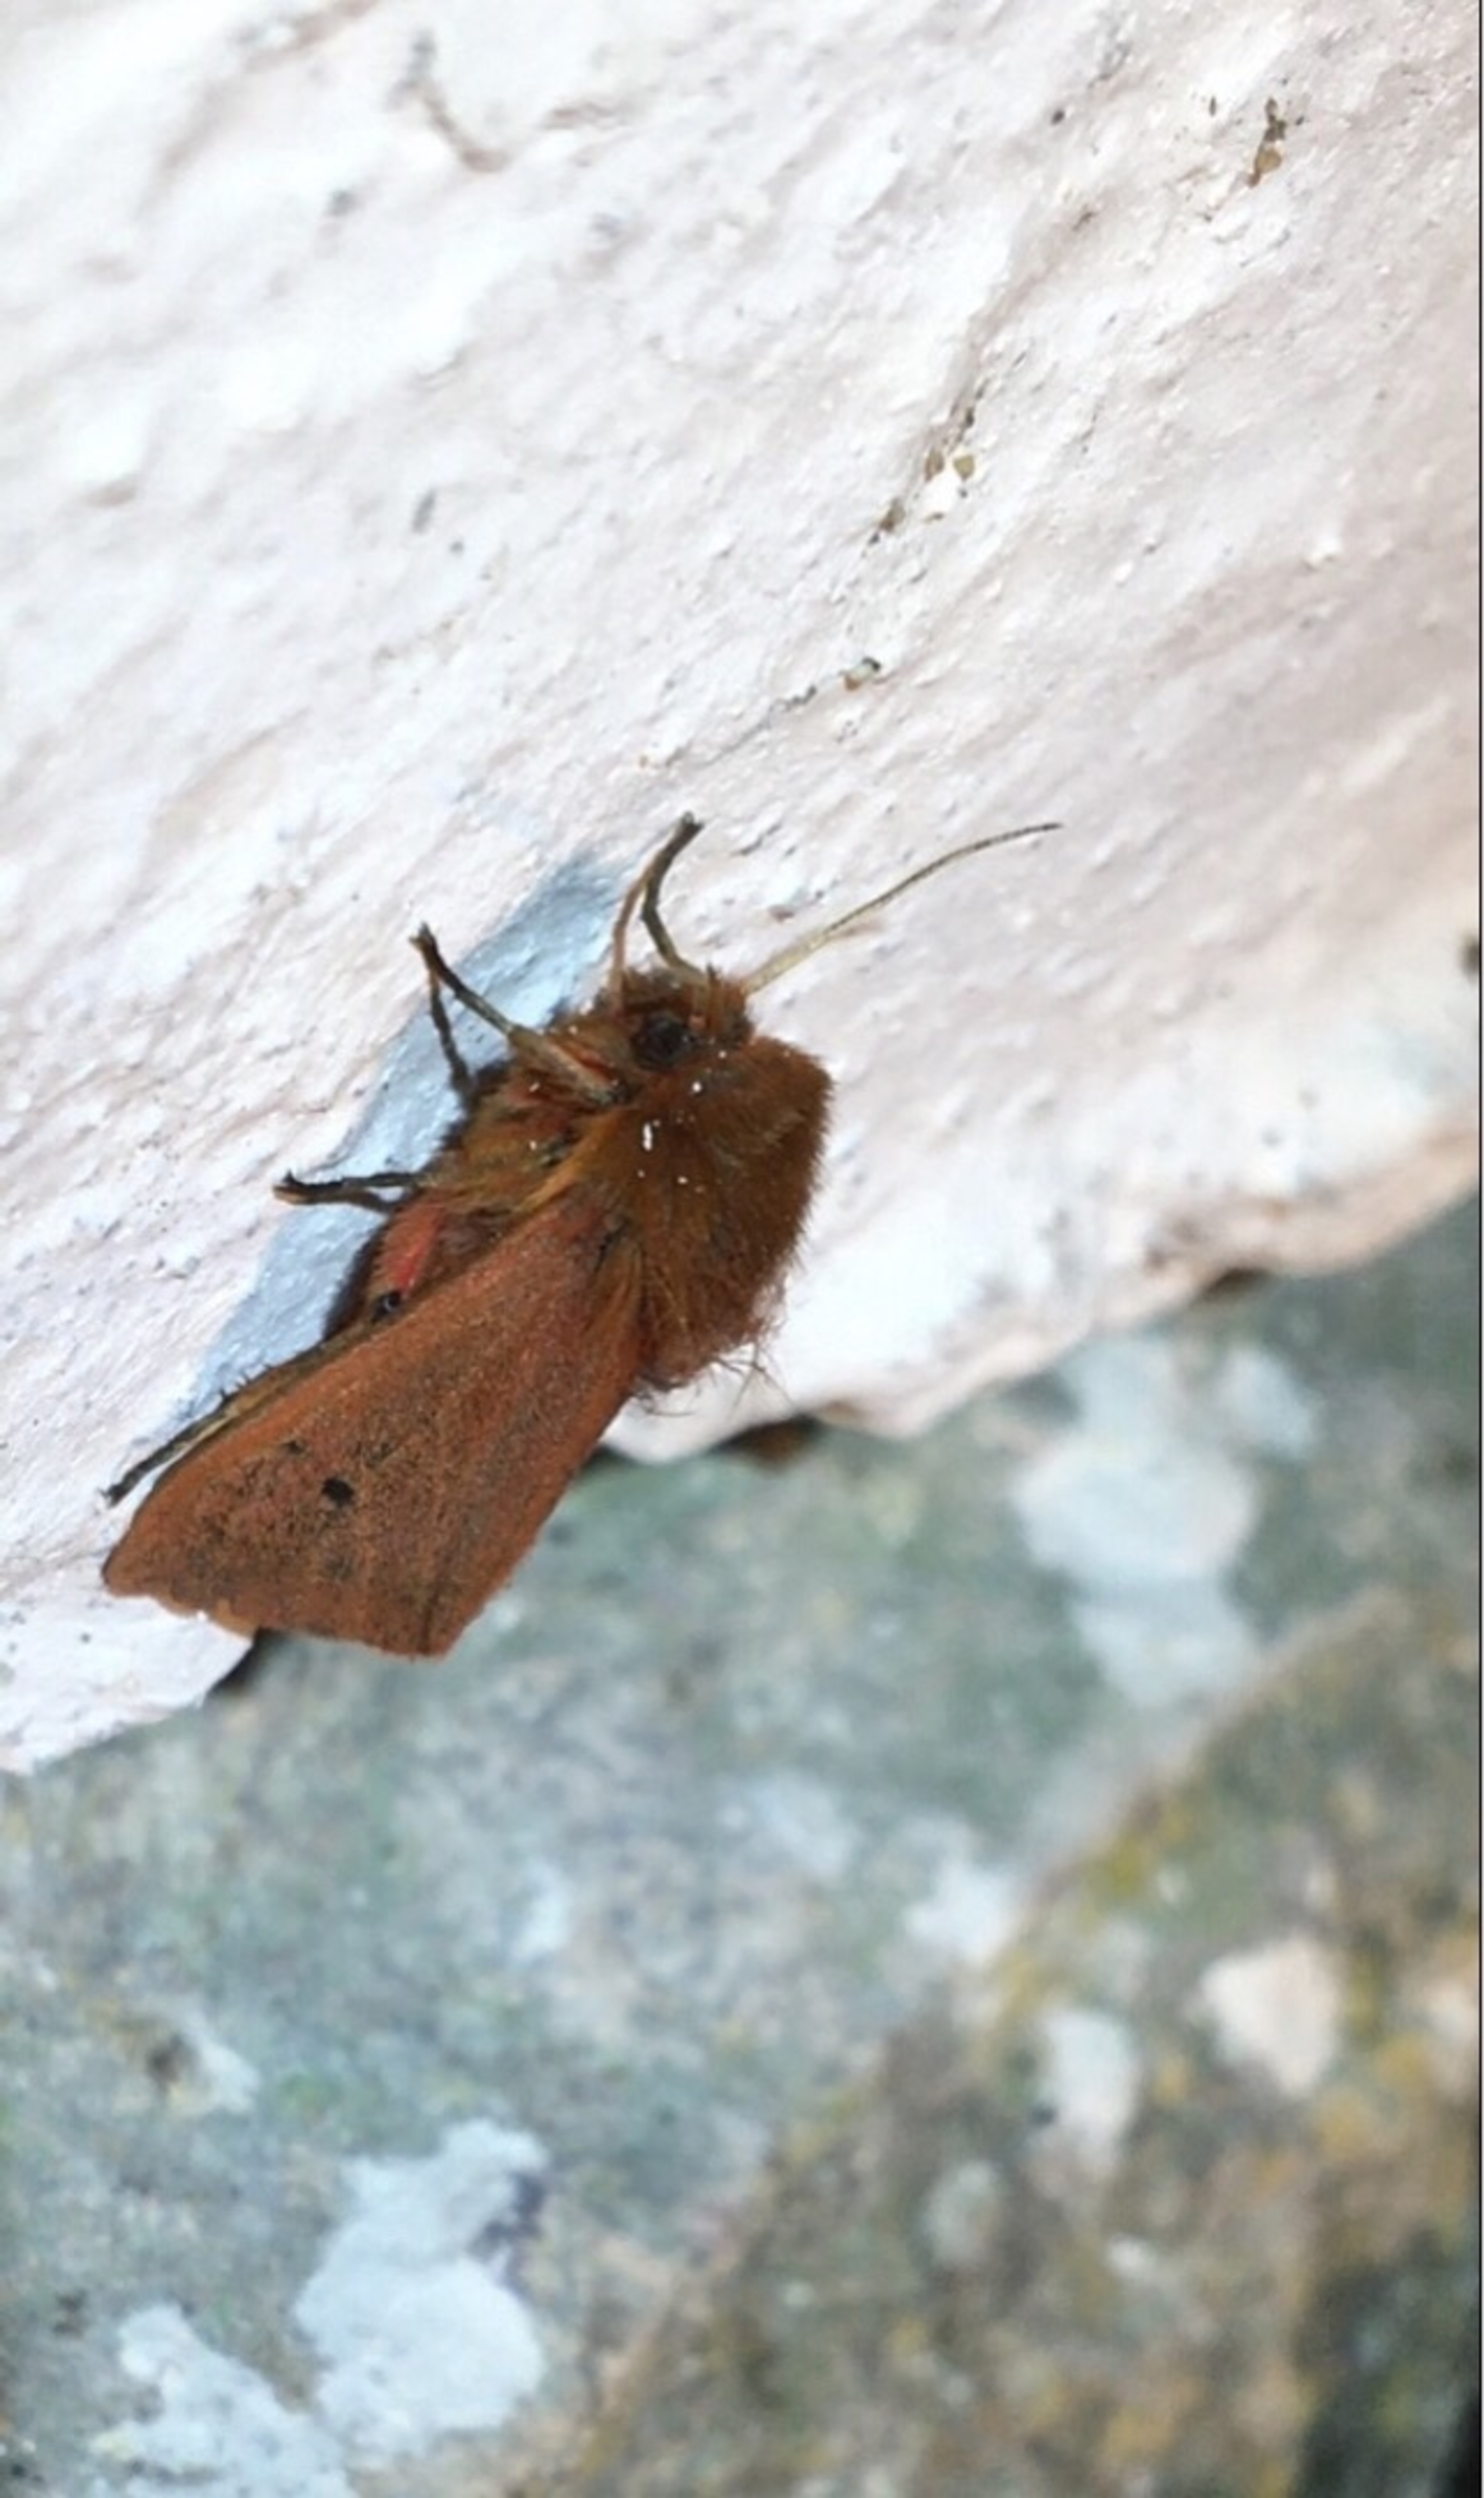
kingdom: Animalia
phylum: Arthropoda
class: Insecta
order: Lepidoptera
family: Erebidae
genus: Phragmatobia
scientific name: Phragmatobia fuliginosa
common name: Kanelbjørn
